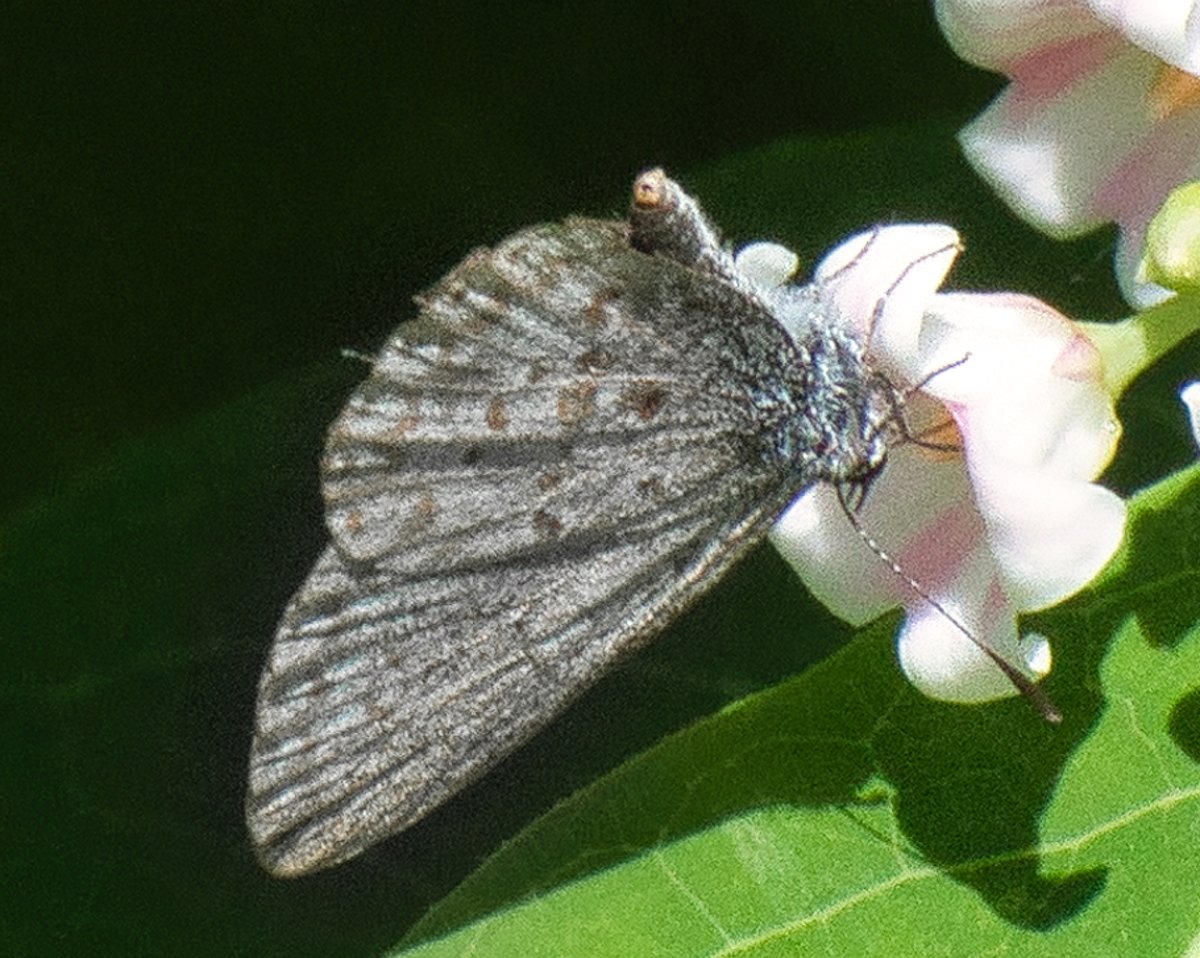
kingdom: Animalia
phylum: Arthropoda
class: Insecta
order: Lepidoptera
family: Lycaenidae
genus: Celastrina
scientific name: Celastrina ladon
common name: Echo Azure
